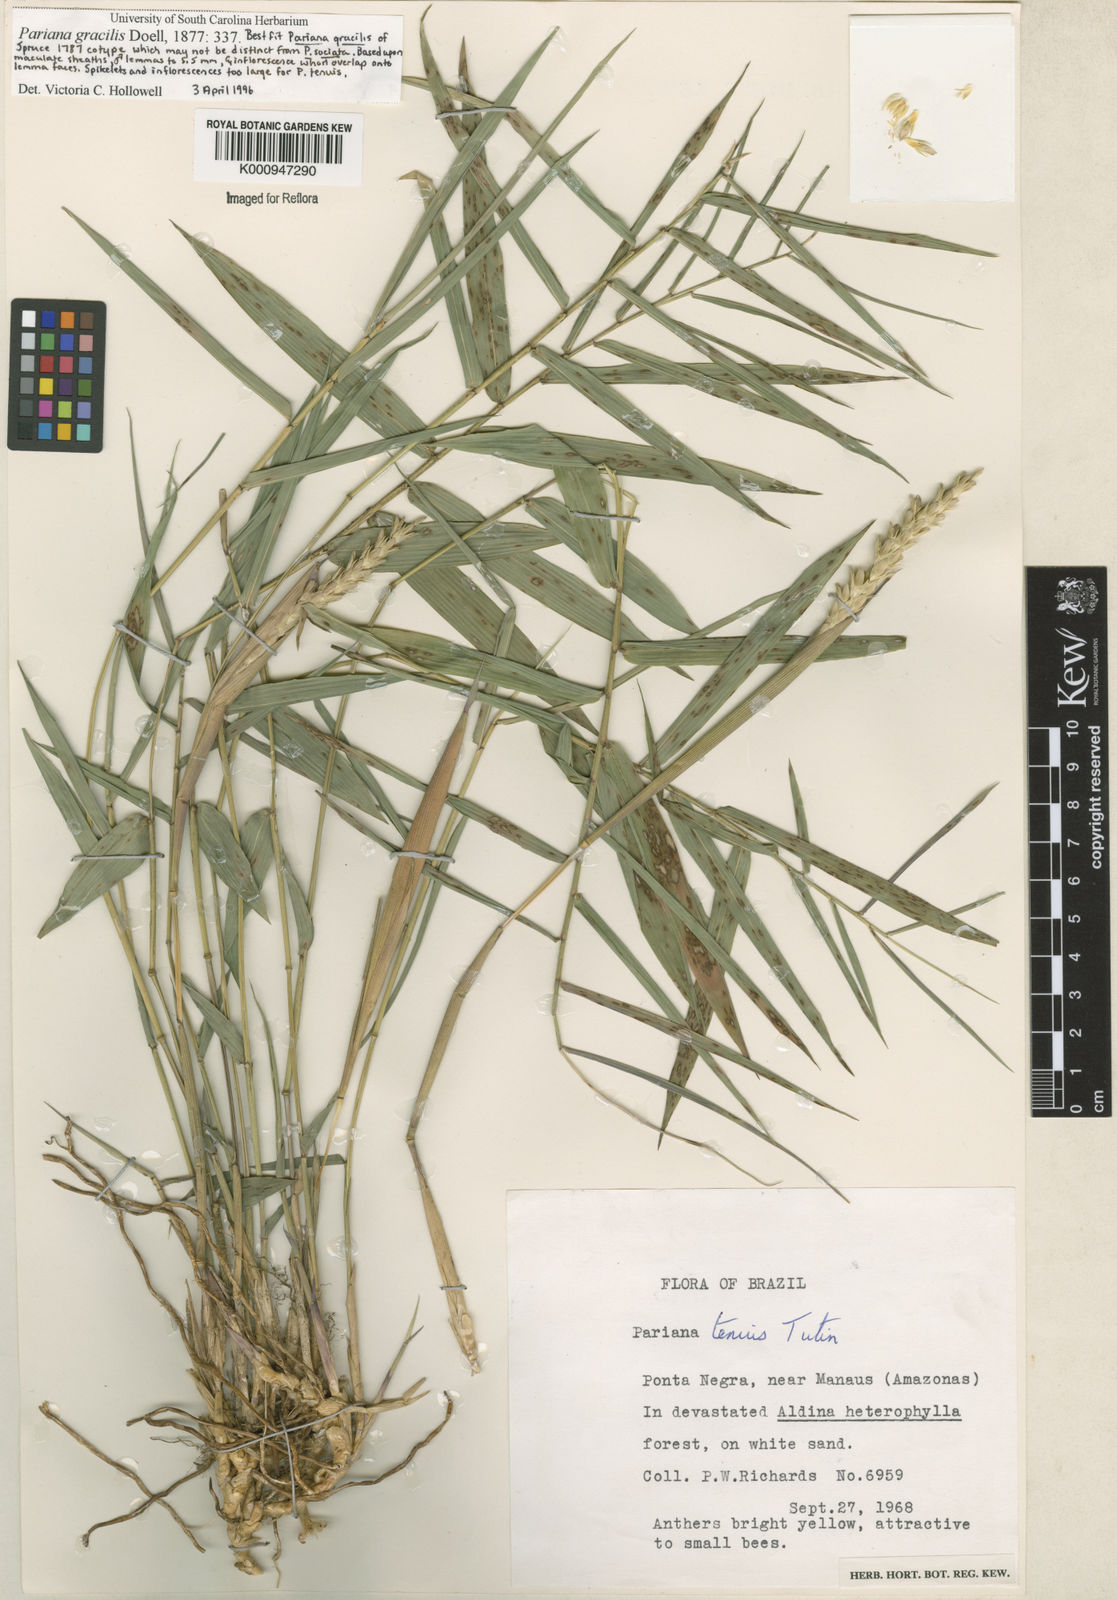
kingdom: Plantae
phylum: Tracheophyta
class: Liliopsida
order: Poales
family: Poaceae
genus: Pariana
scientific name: Pariana
